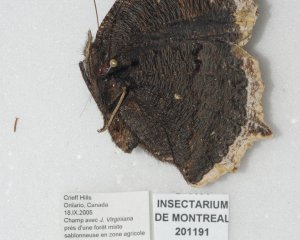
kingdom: Animalia
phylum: Arthropoda
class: Insecta
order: Lepidoptera
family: Nymphalidae
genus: Nymphalis
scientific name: Nymphalis antiopa
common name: Mourning Cloak
